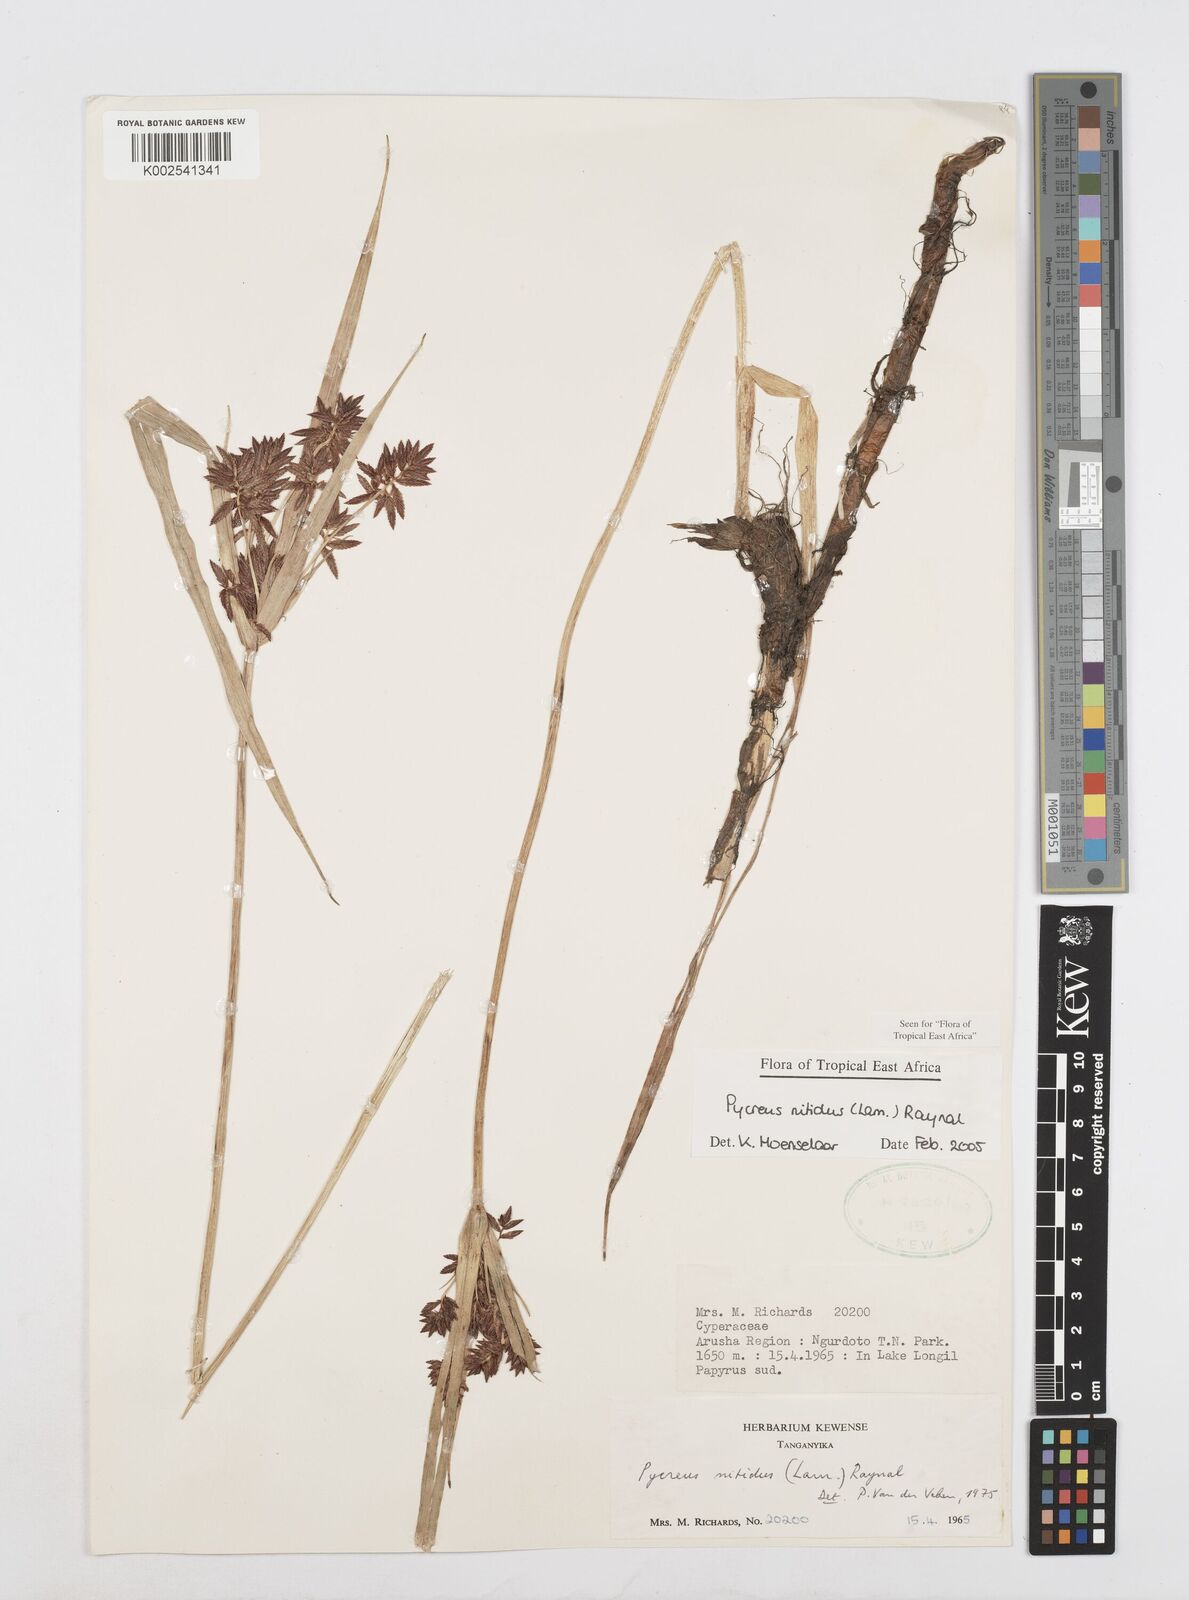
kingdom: Plantae
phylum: Tracheophyta
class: Liliopsida
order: Poales
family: Cyperaceae
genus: Cyperus
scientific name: Cyperus nitidus
